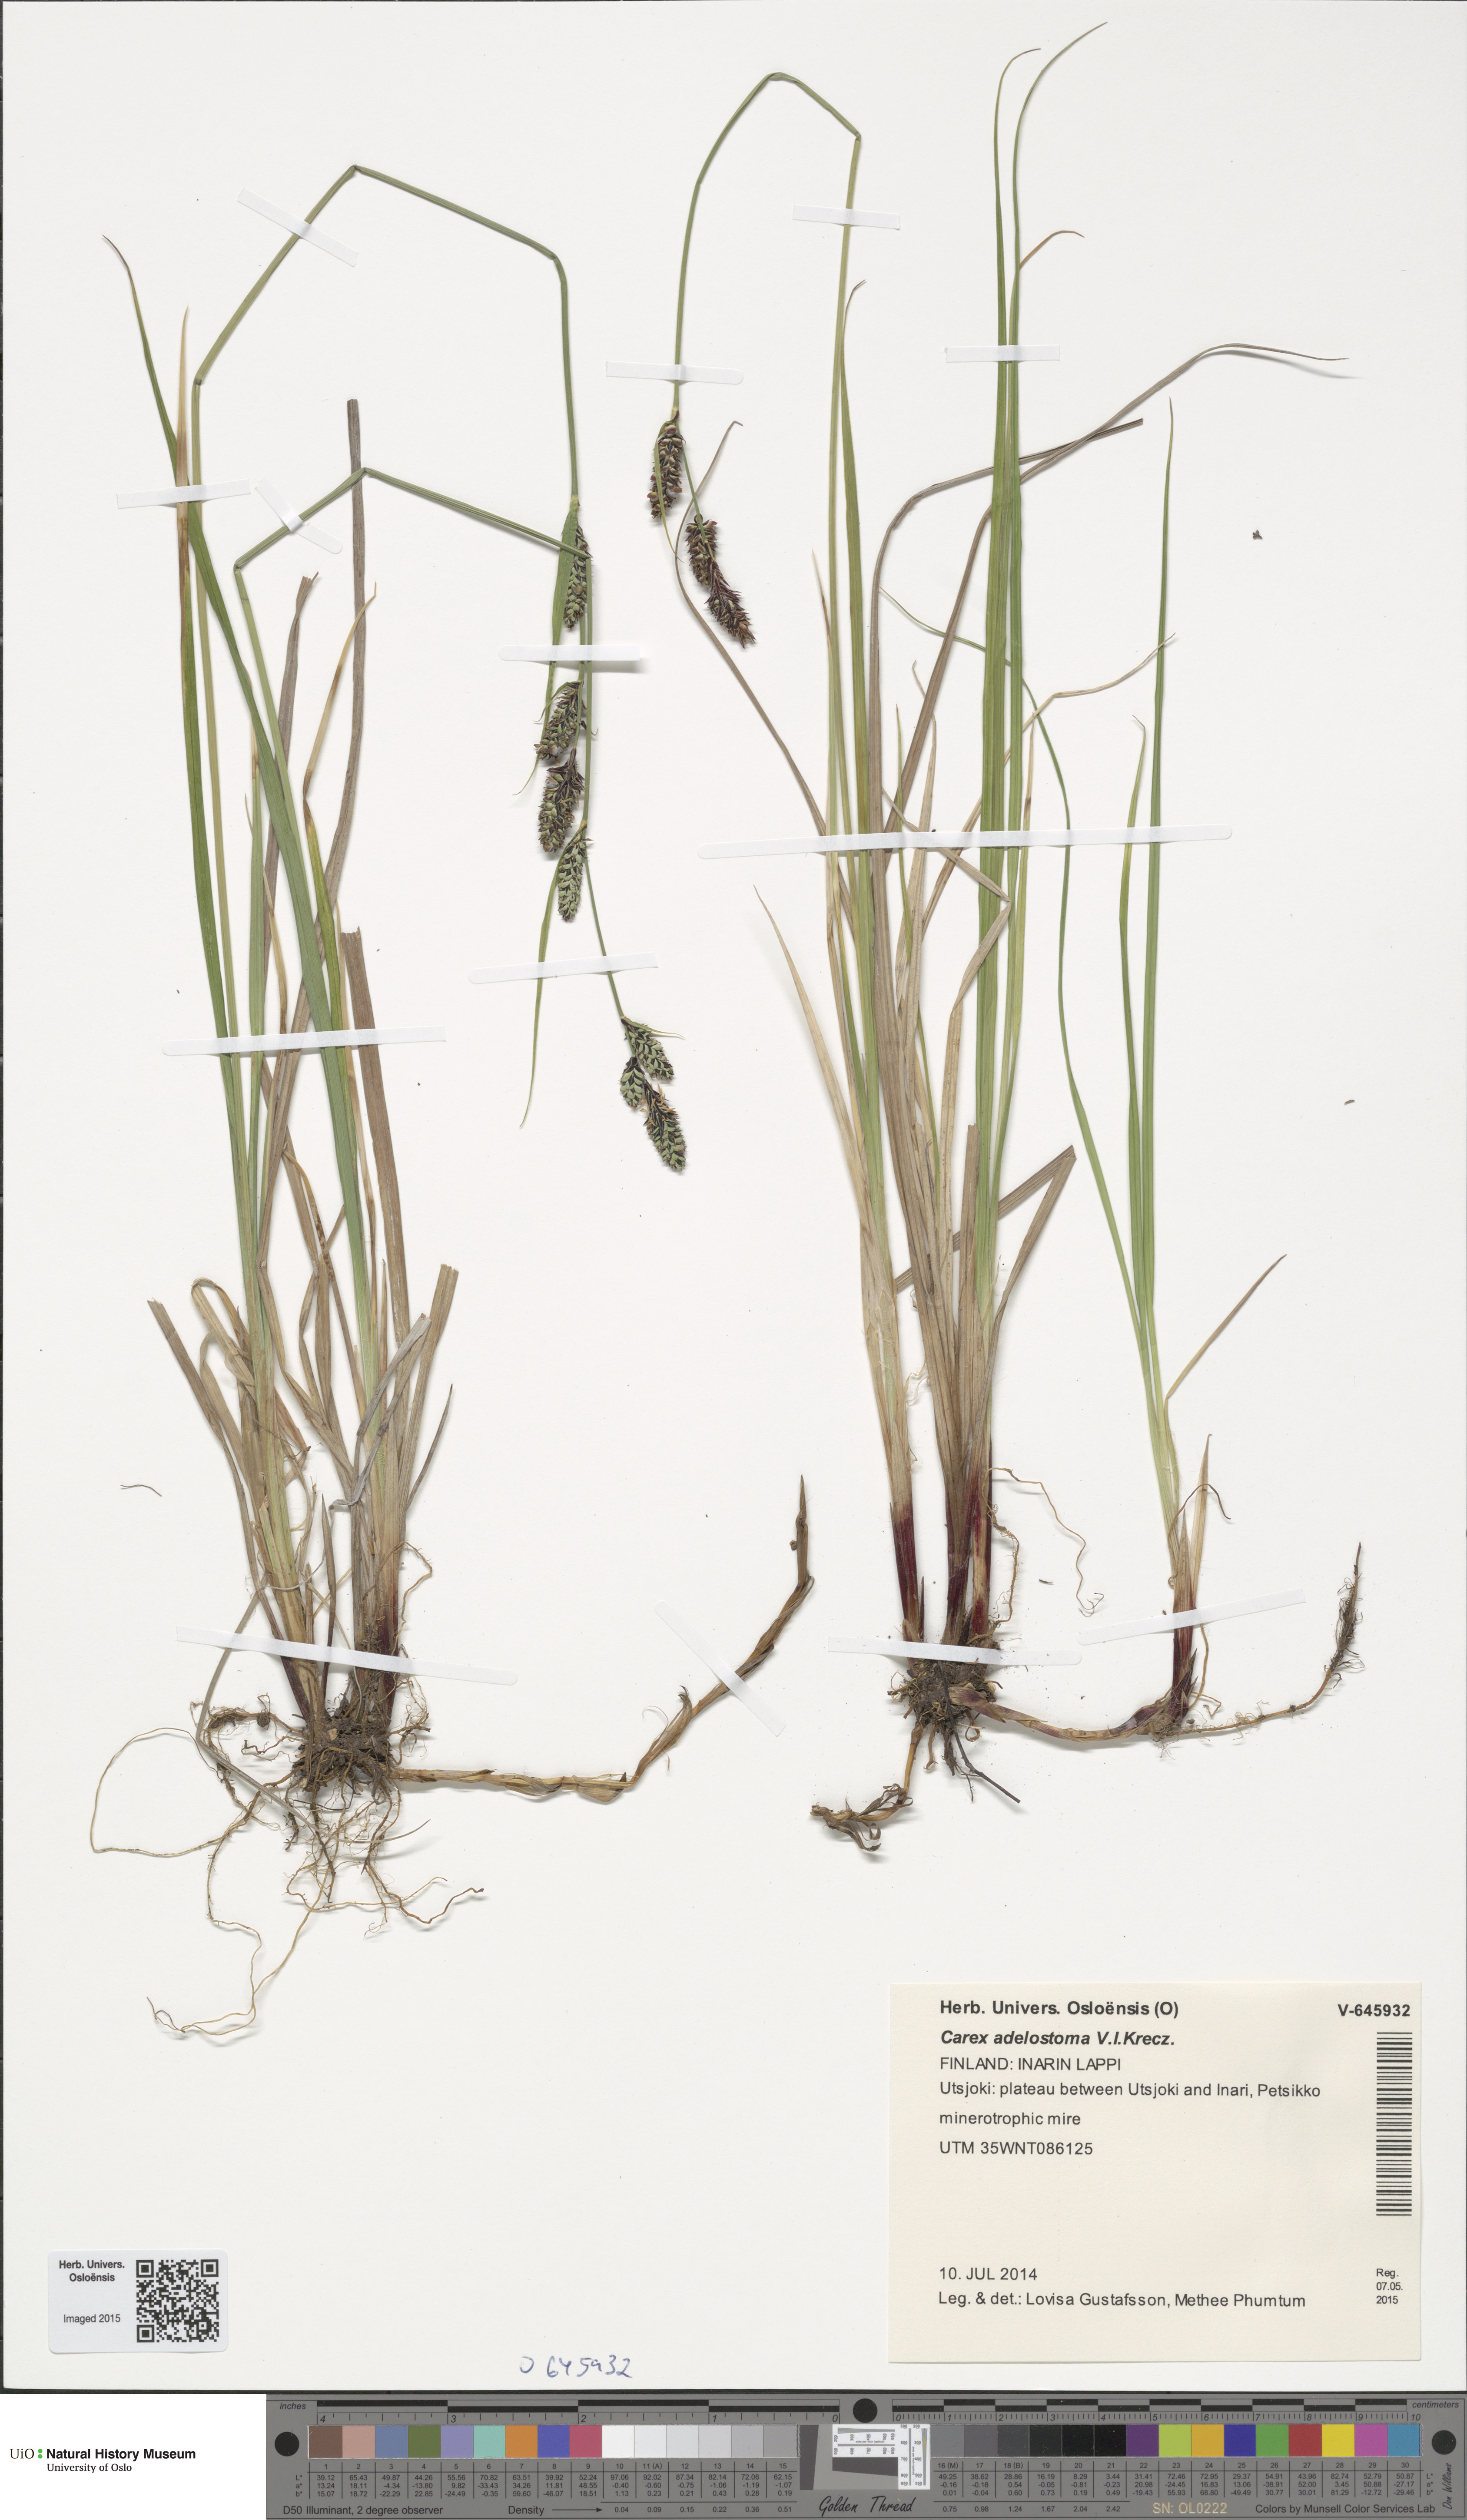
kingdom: Plantae
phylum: Tracheophyta
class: Liliopsida
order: Poales
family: Cyperaceae
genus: Carex
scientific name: Carex adelostoma
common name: Circumpolar sedge
